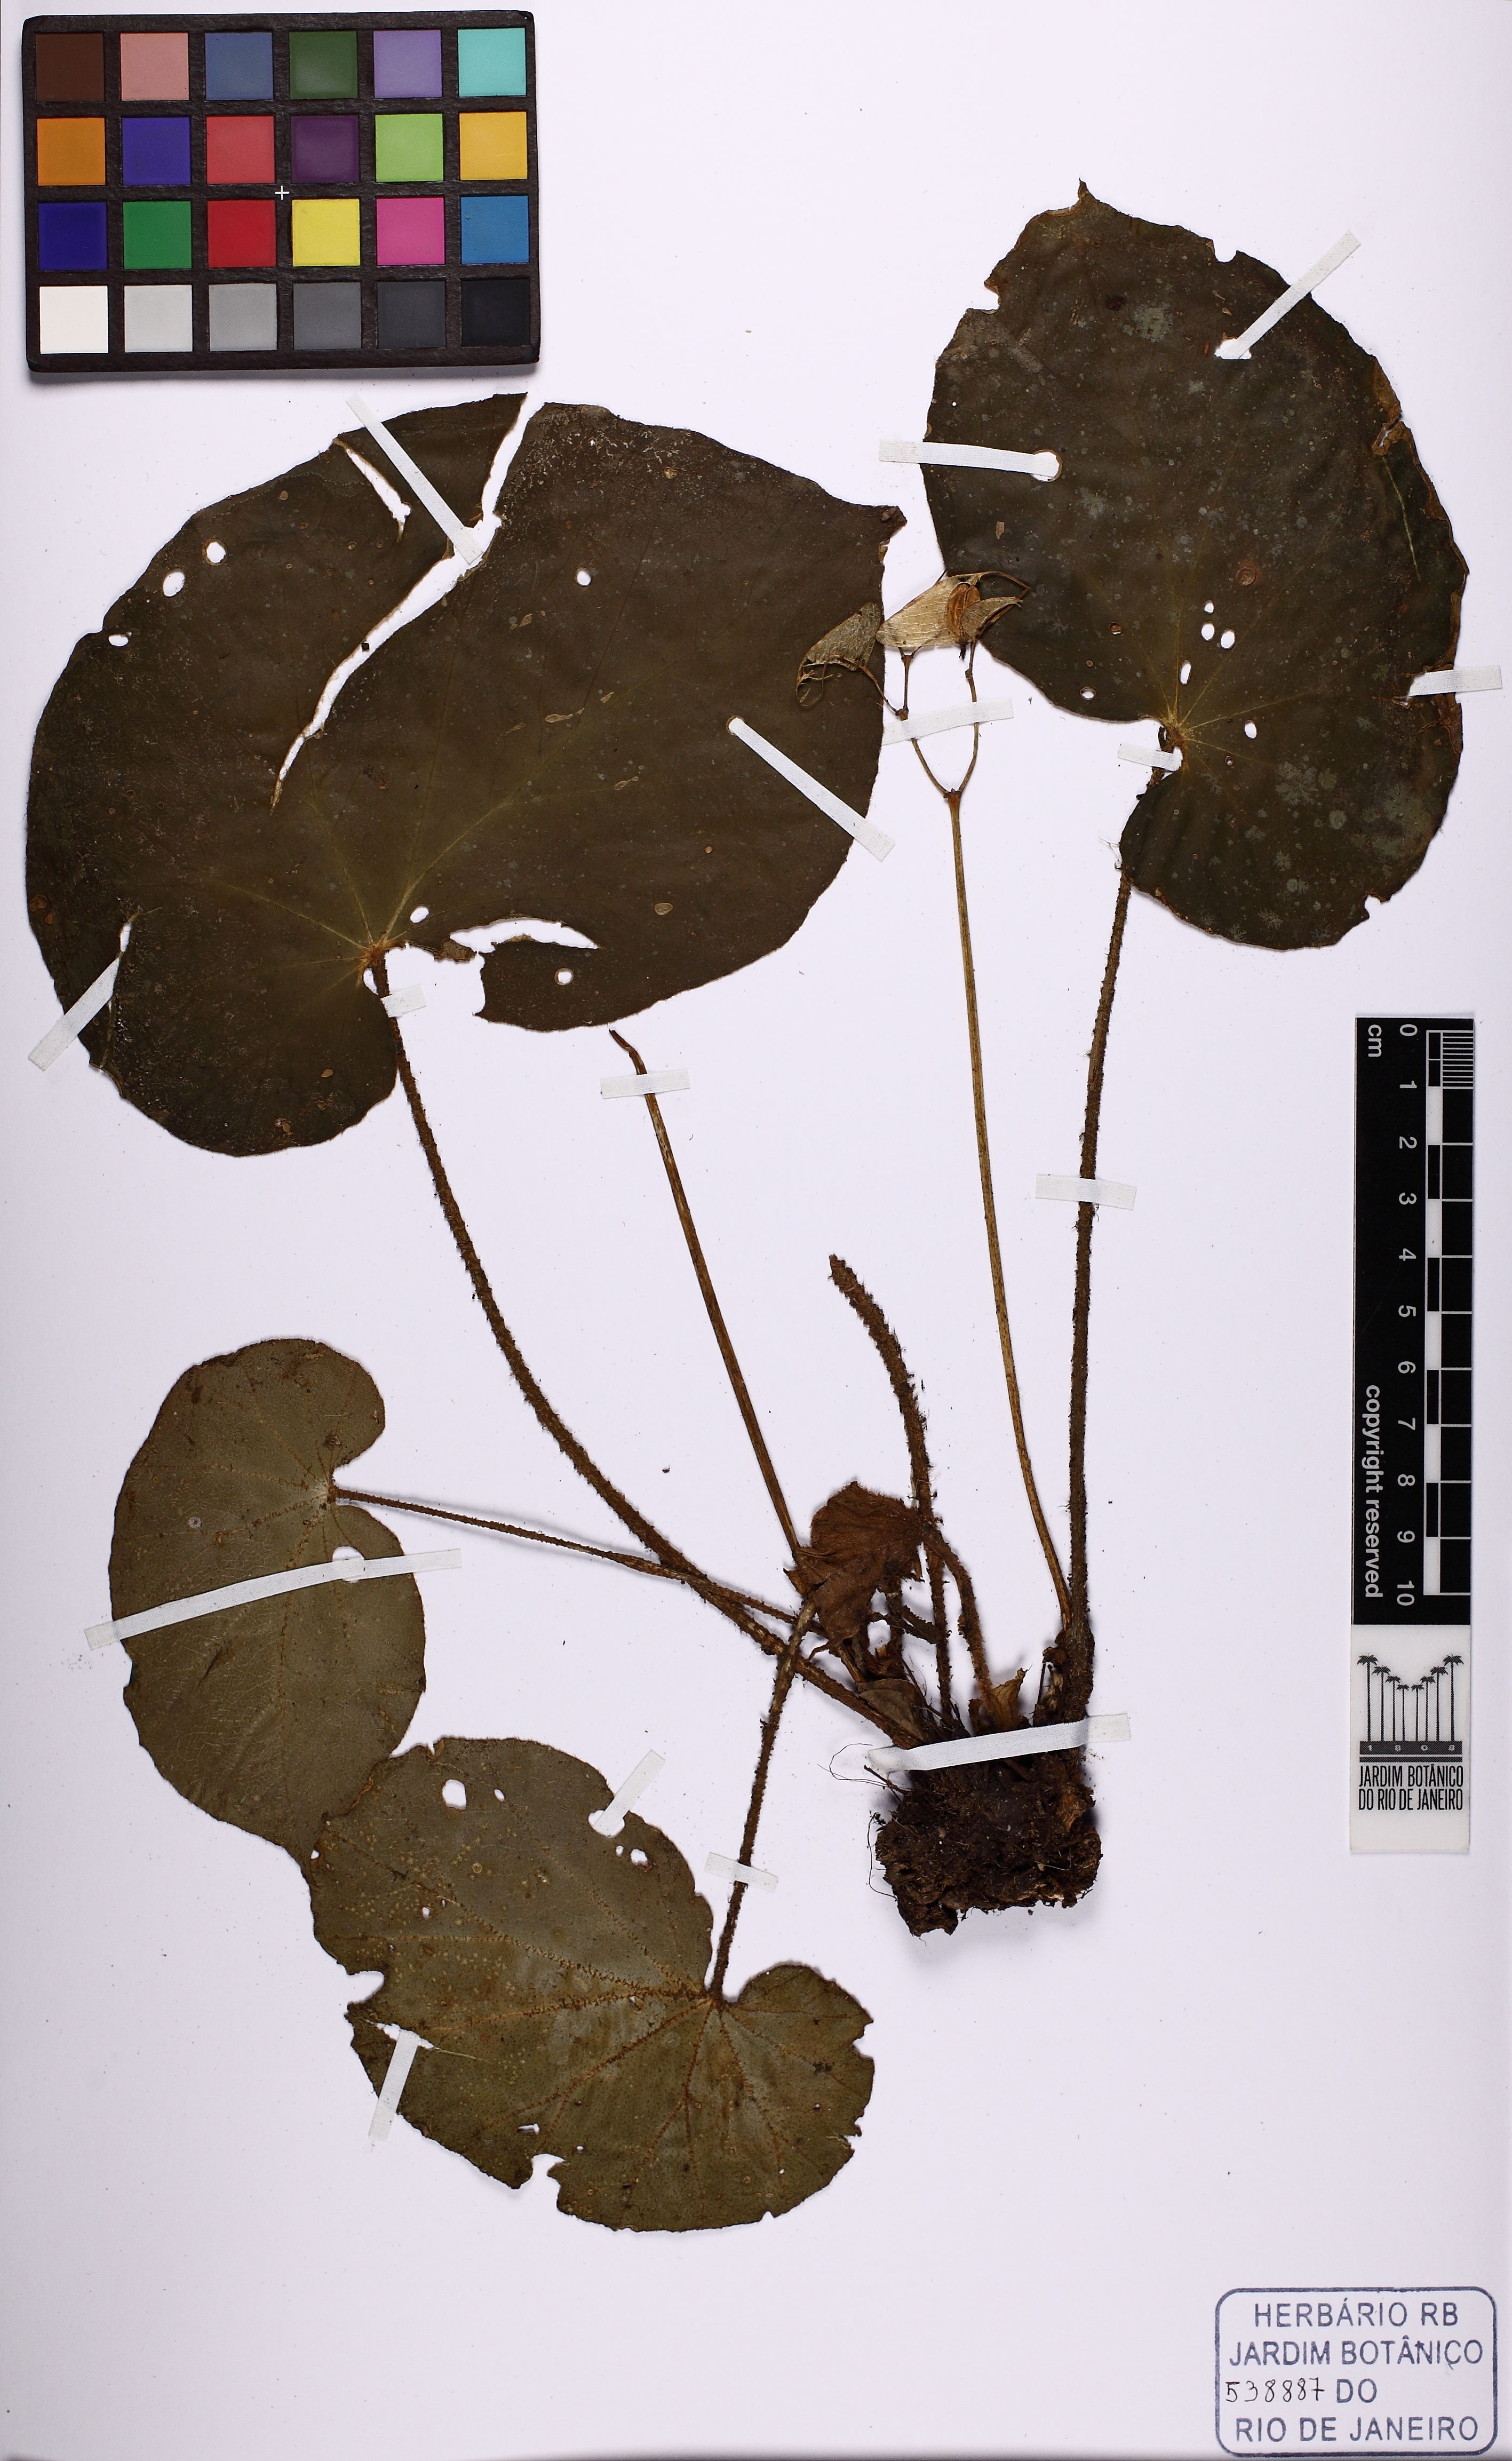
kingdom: Plantae
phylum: Tracheophyta
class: Magnoliopsida
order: Cucurbitales
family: Begoniaceae
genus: Begonia
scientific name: Begonia ramentacea
